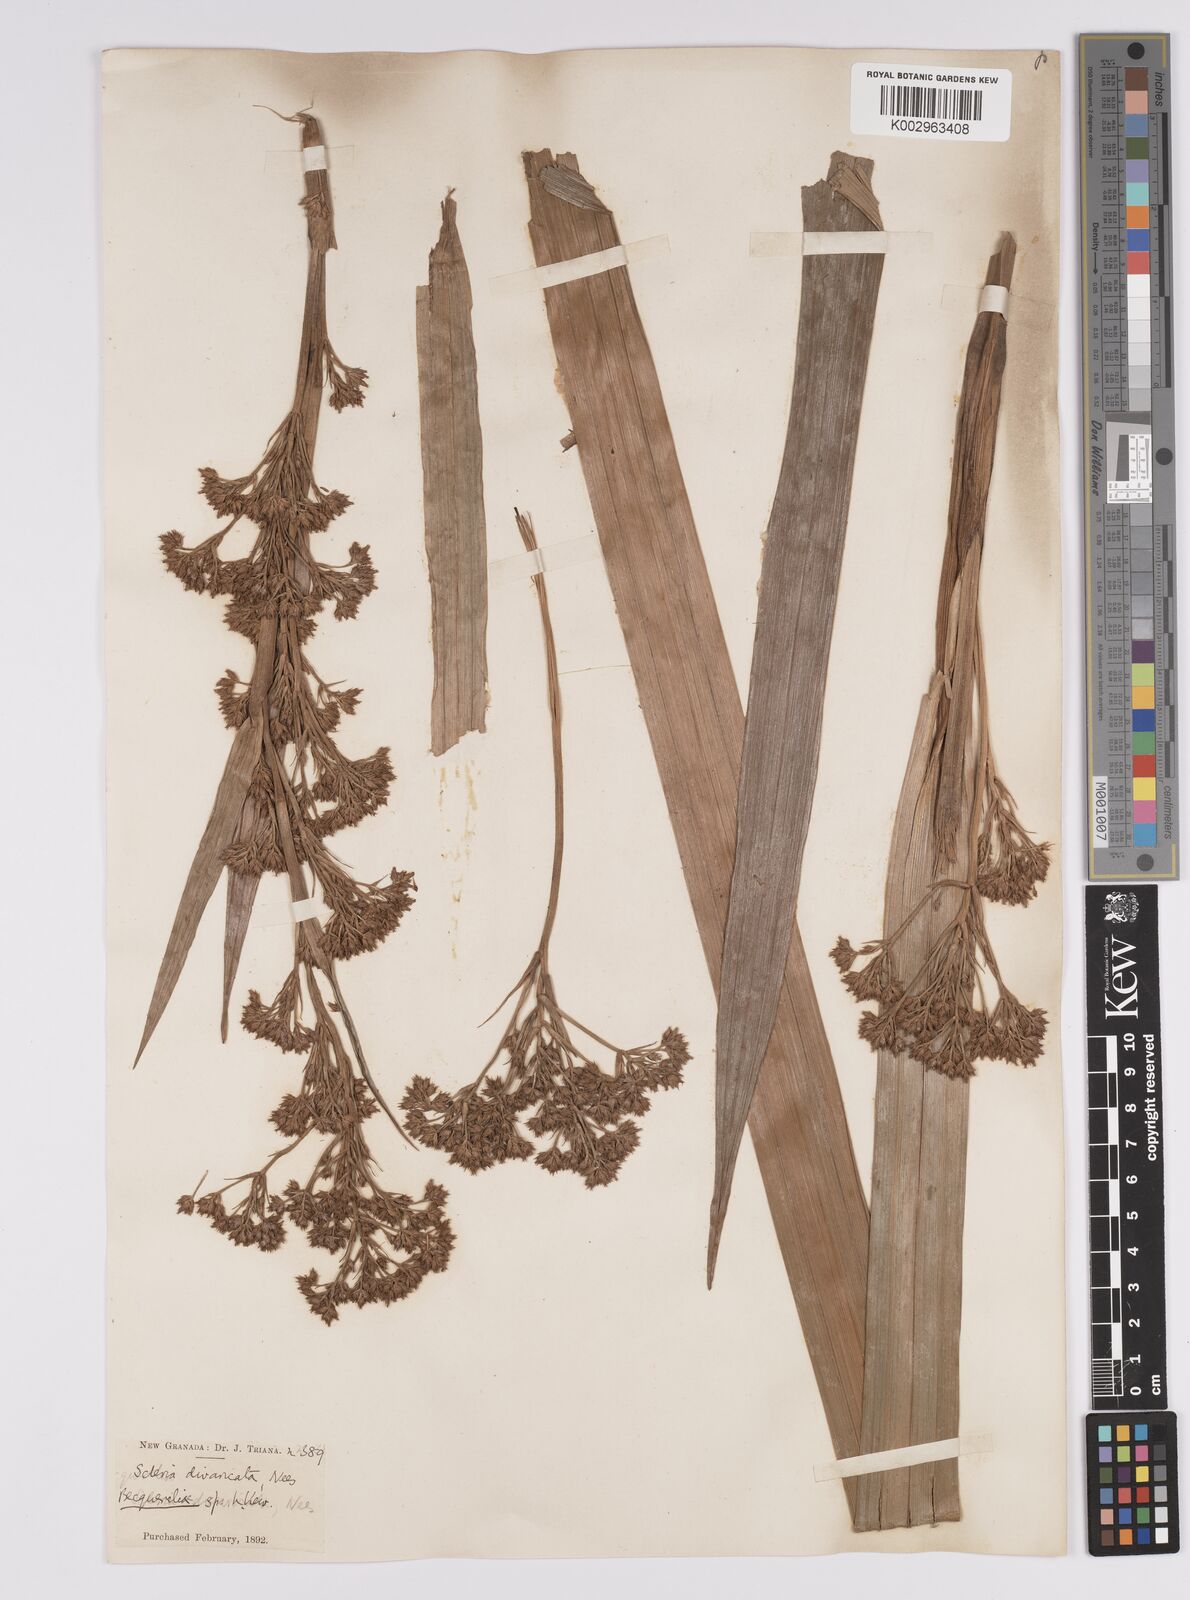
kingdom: Plantae
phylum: Tracheophyta
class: Liliopsida
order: Poales
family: Cyperaceae
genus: Becquerelia
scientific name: Becquerelia cymosa
